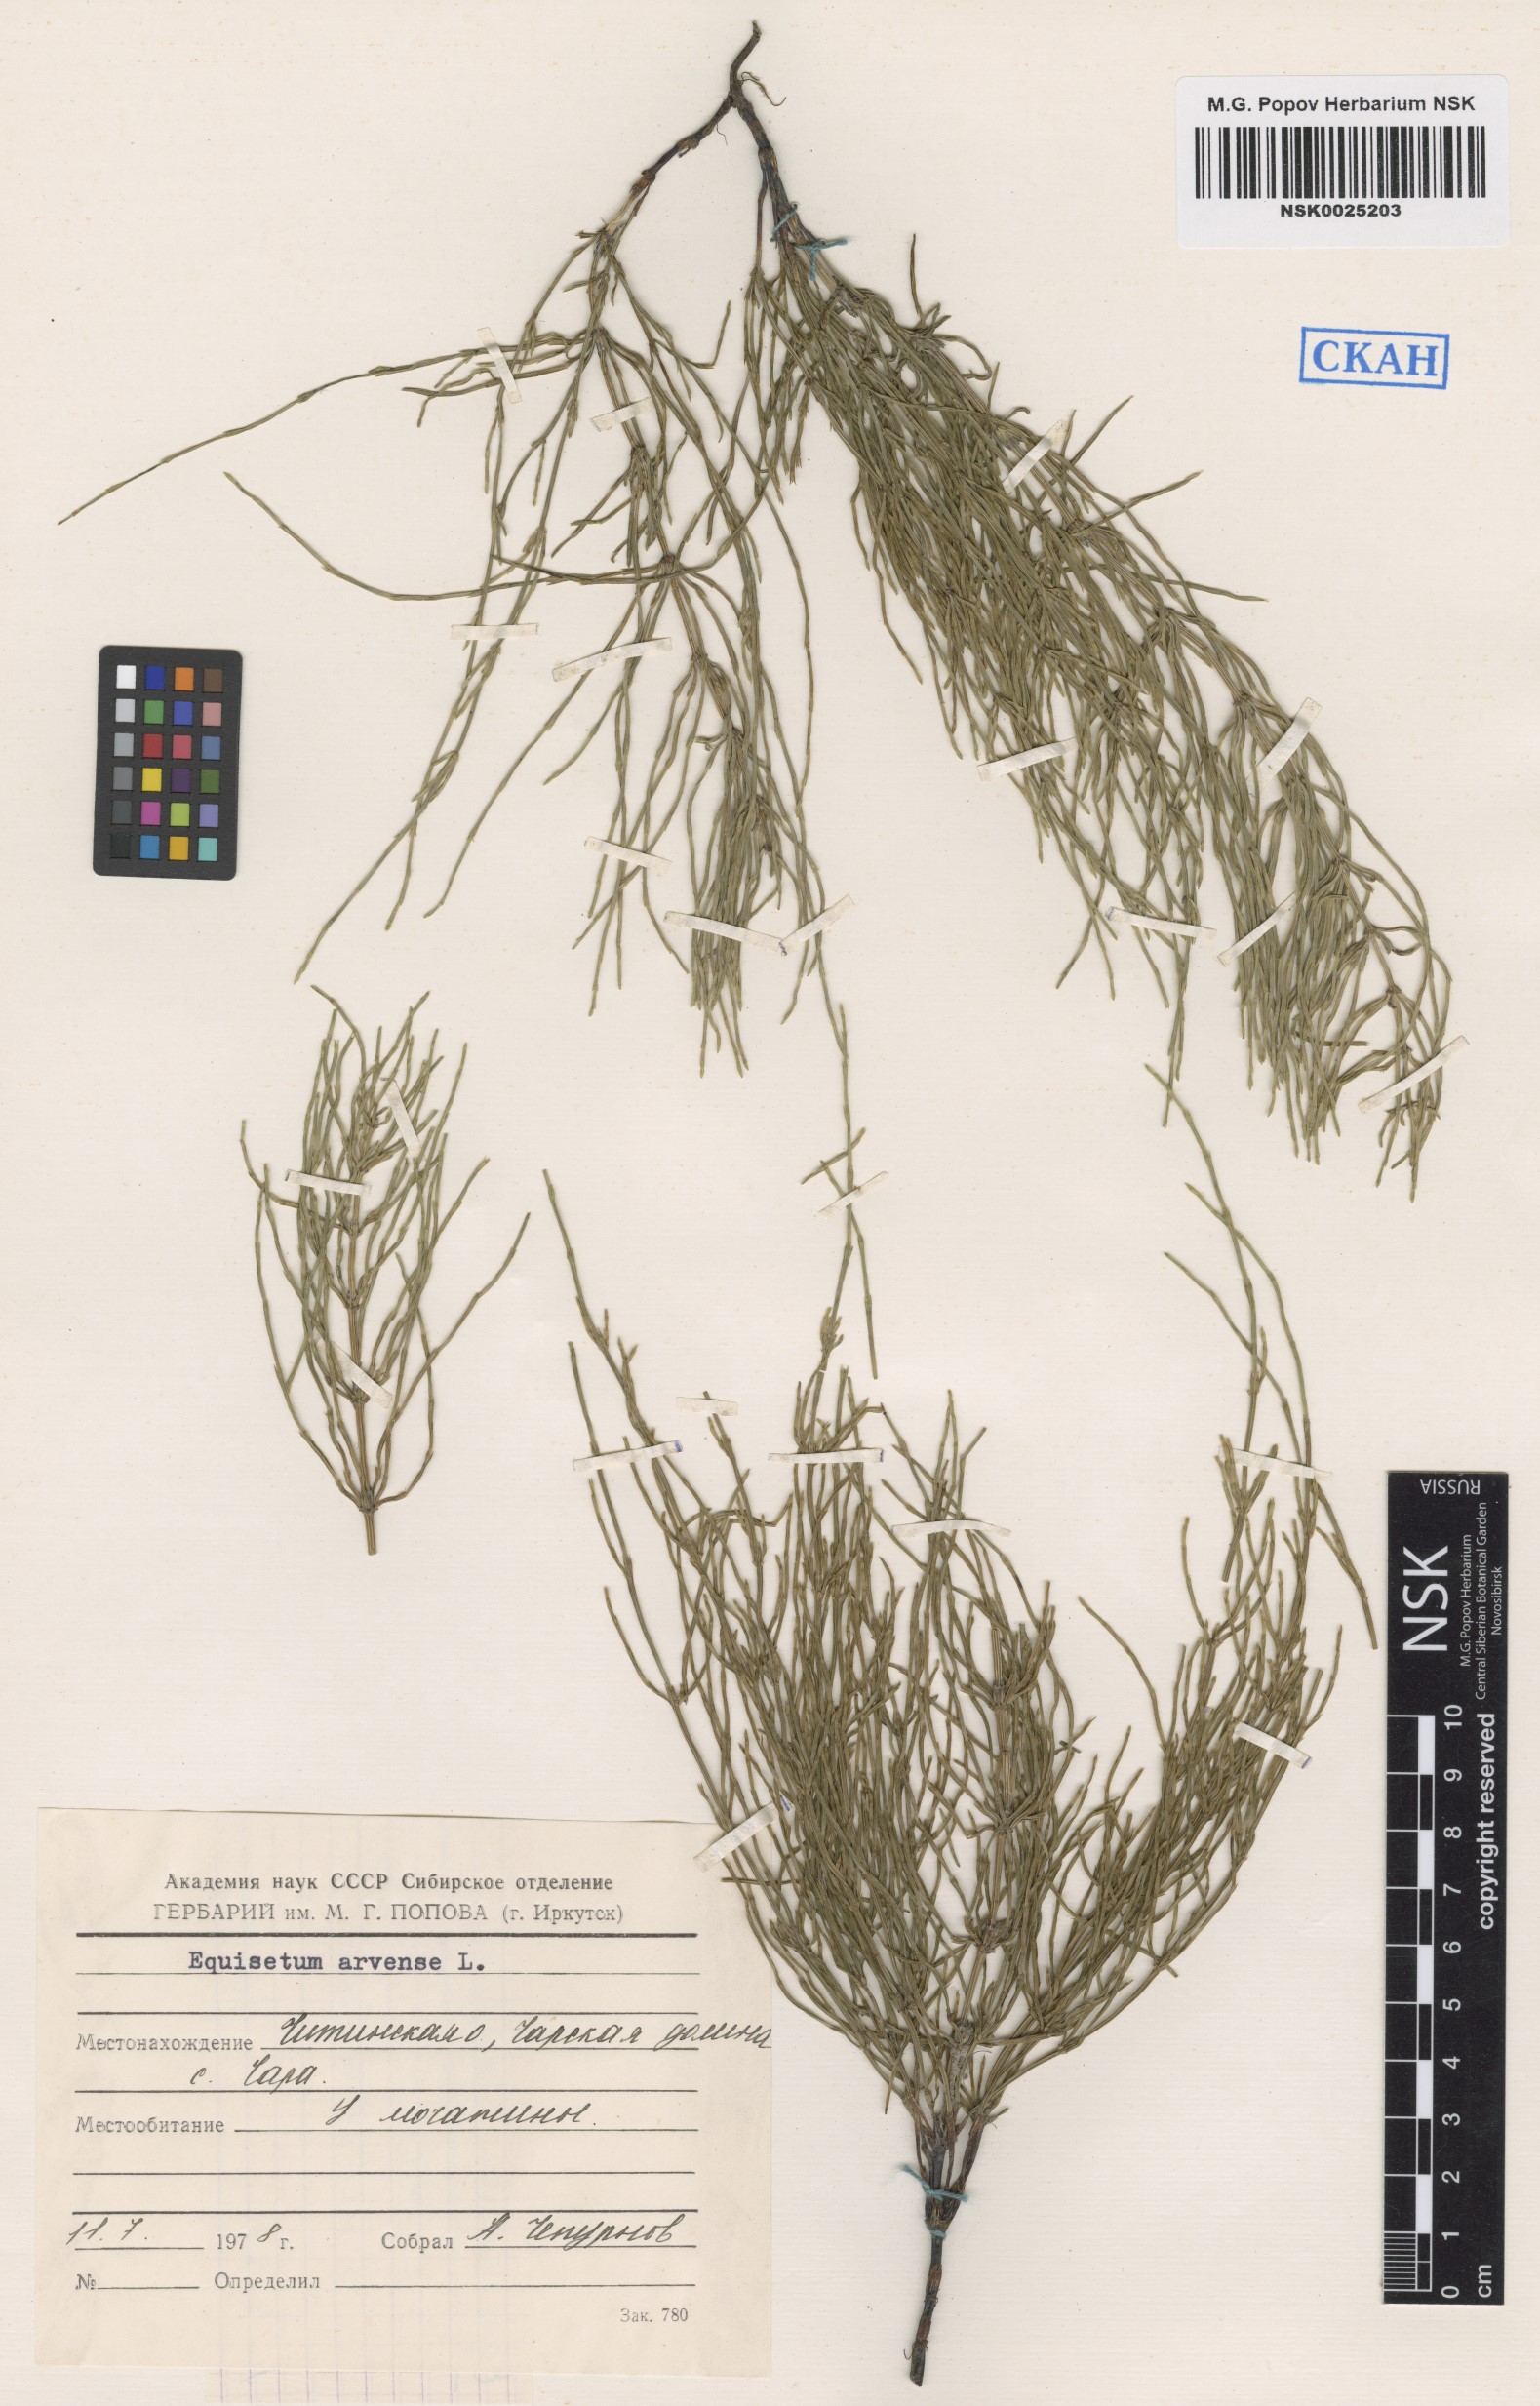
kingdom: Plantae
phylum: Tracheophyta
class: Polypodiopsida
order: Equisetales
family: Equisetaceae
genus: Equisetum
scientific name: Equisetum arvense
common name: Field horsetail
